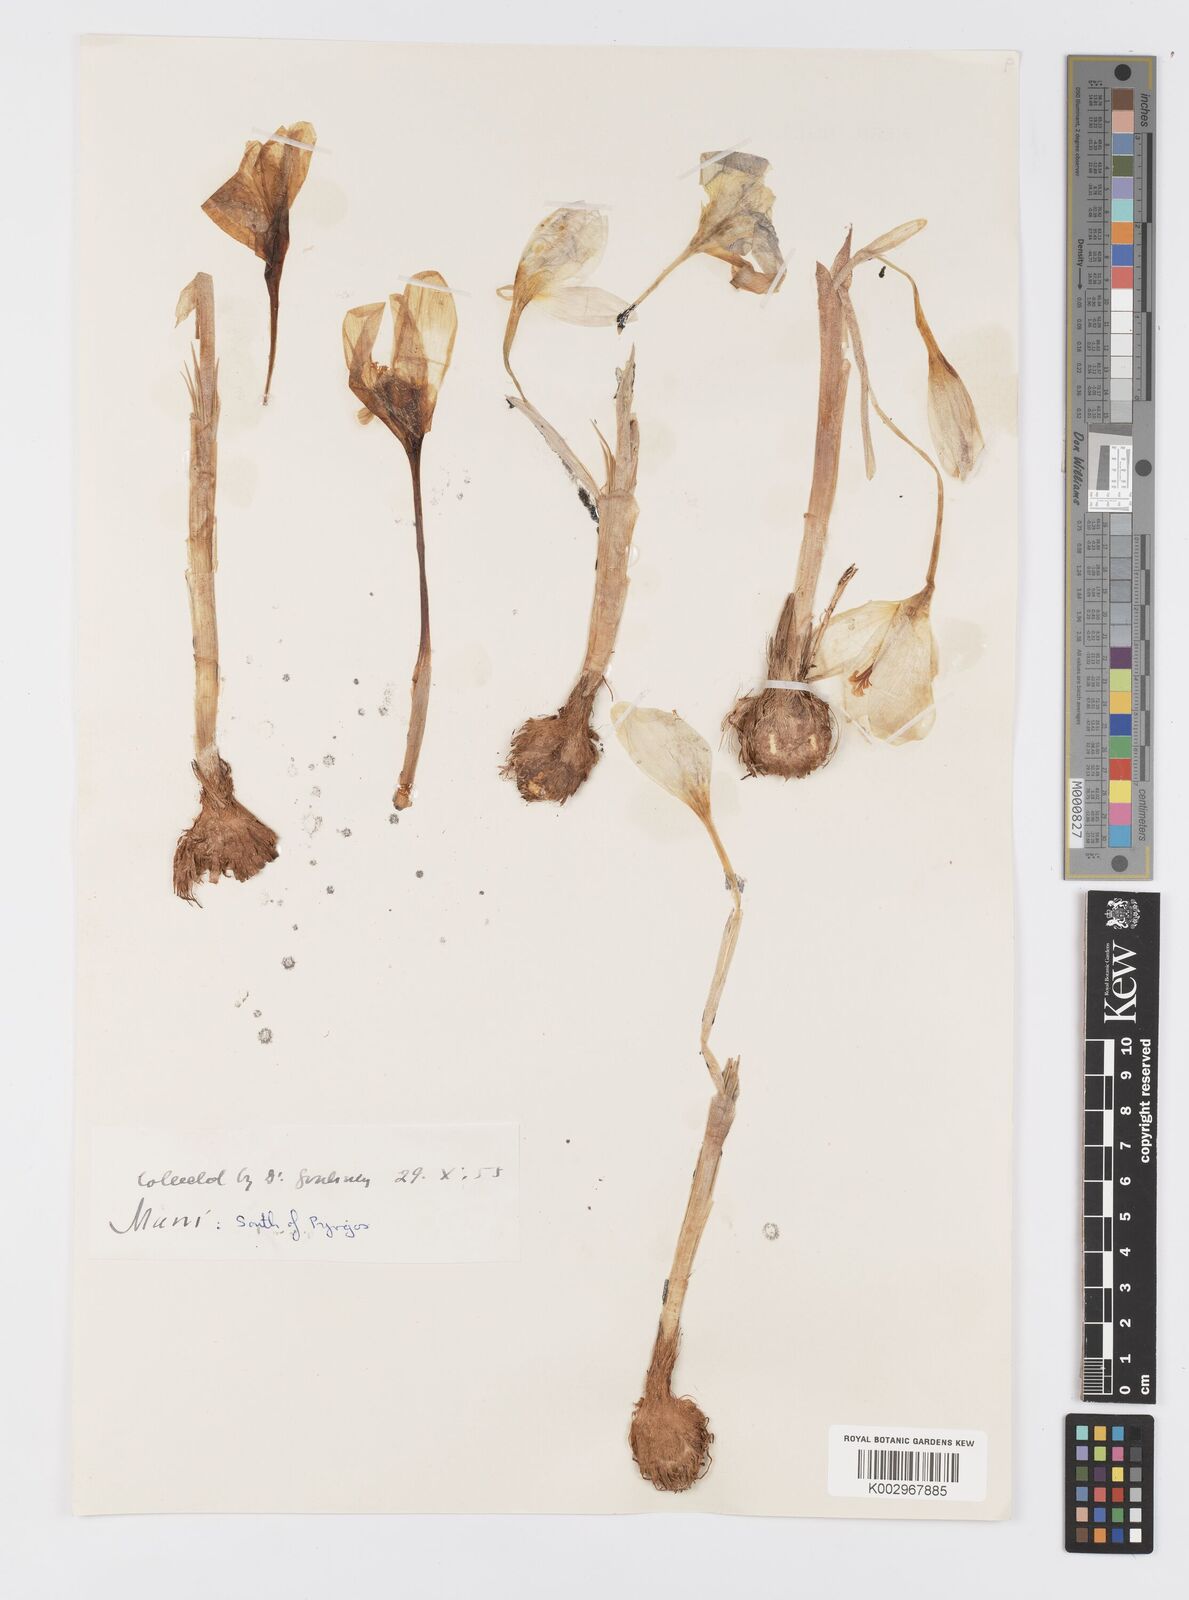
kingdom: Plantae
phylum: Tracheophyta
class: Liliopsida
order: Asparagales
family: Iridaceae
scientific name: Iridaceae
